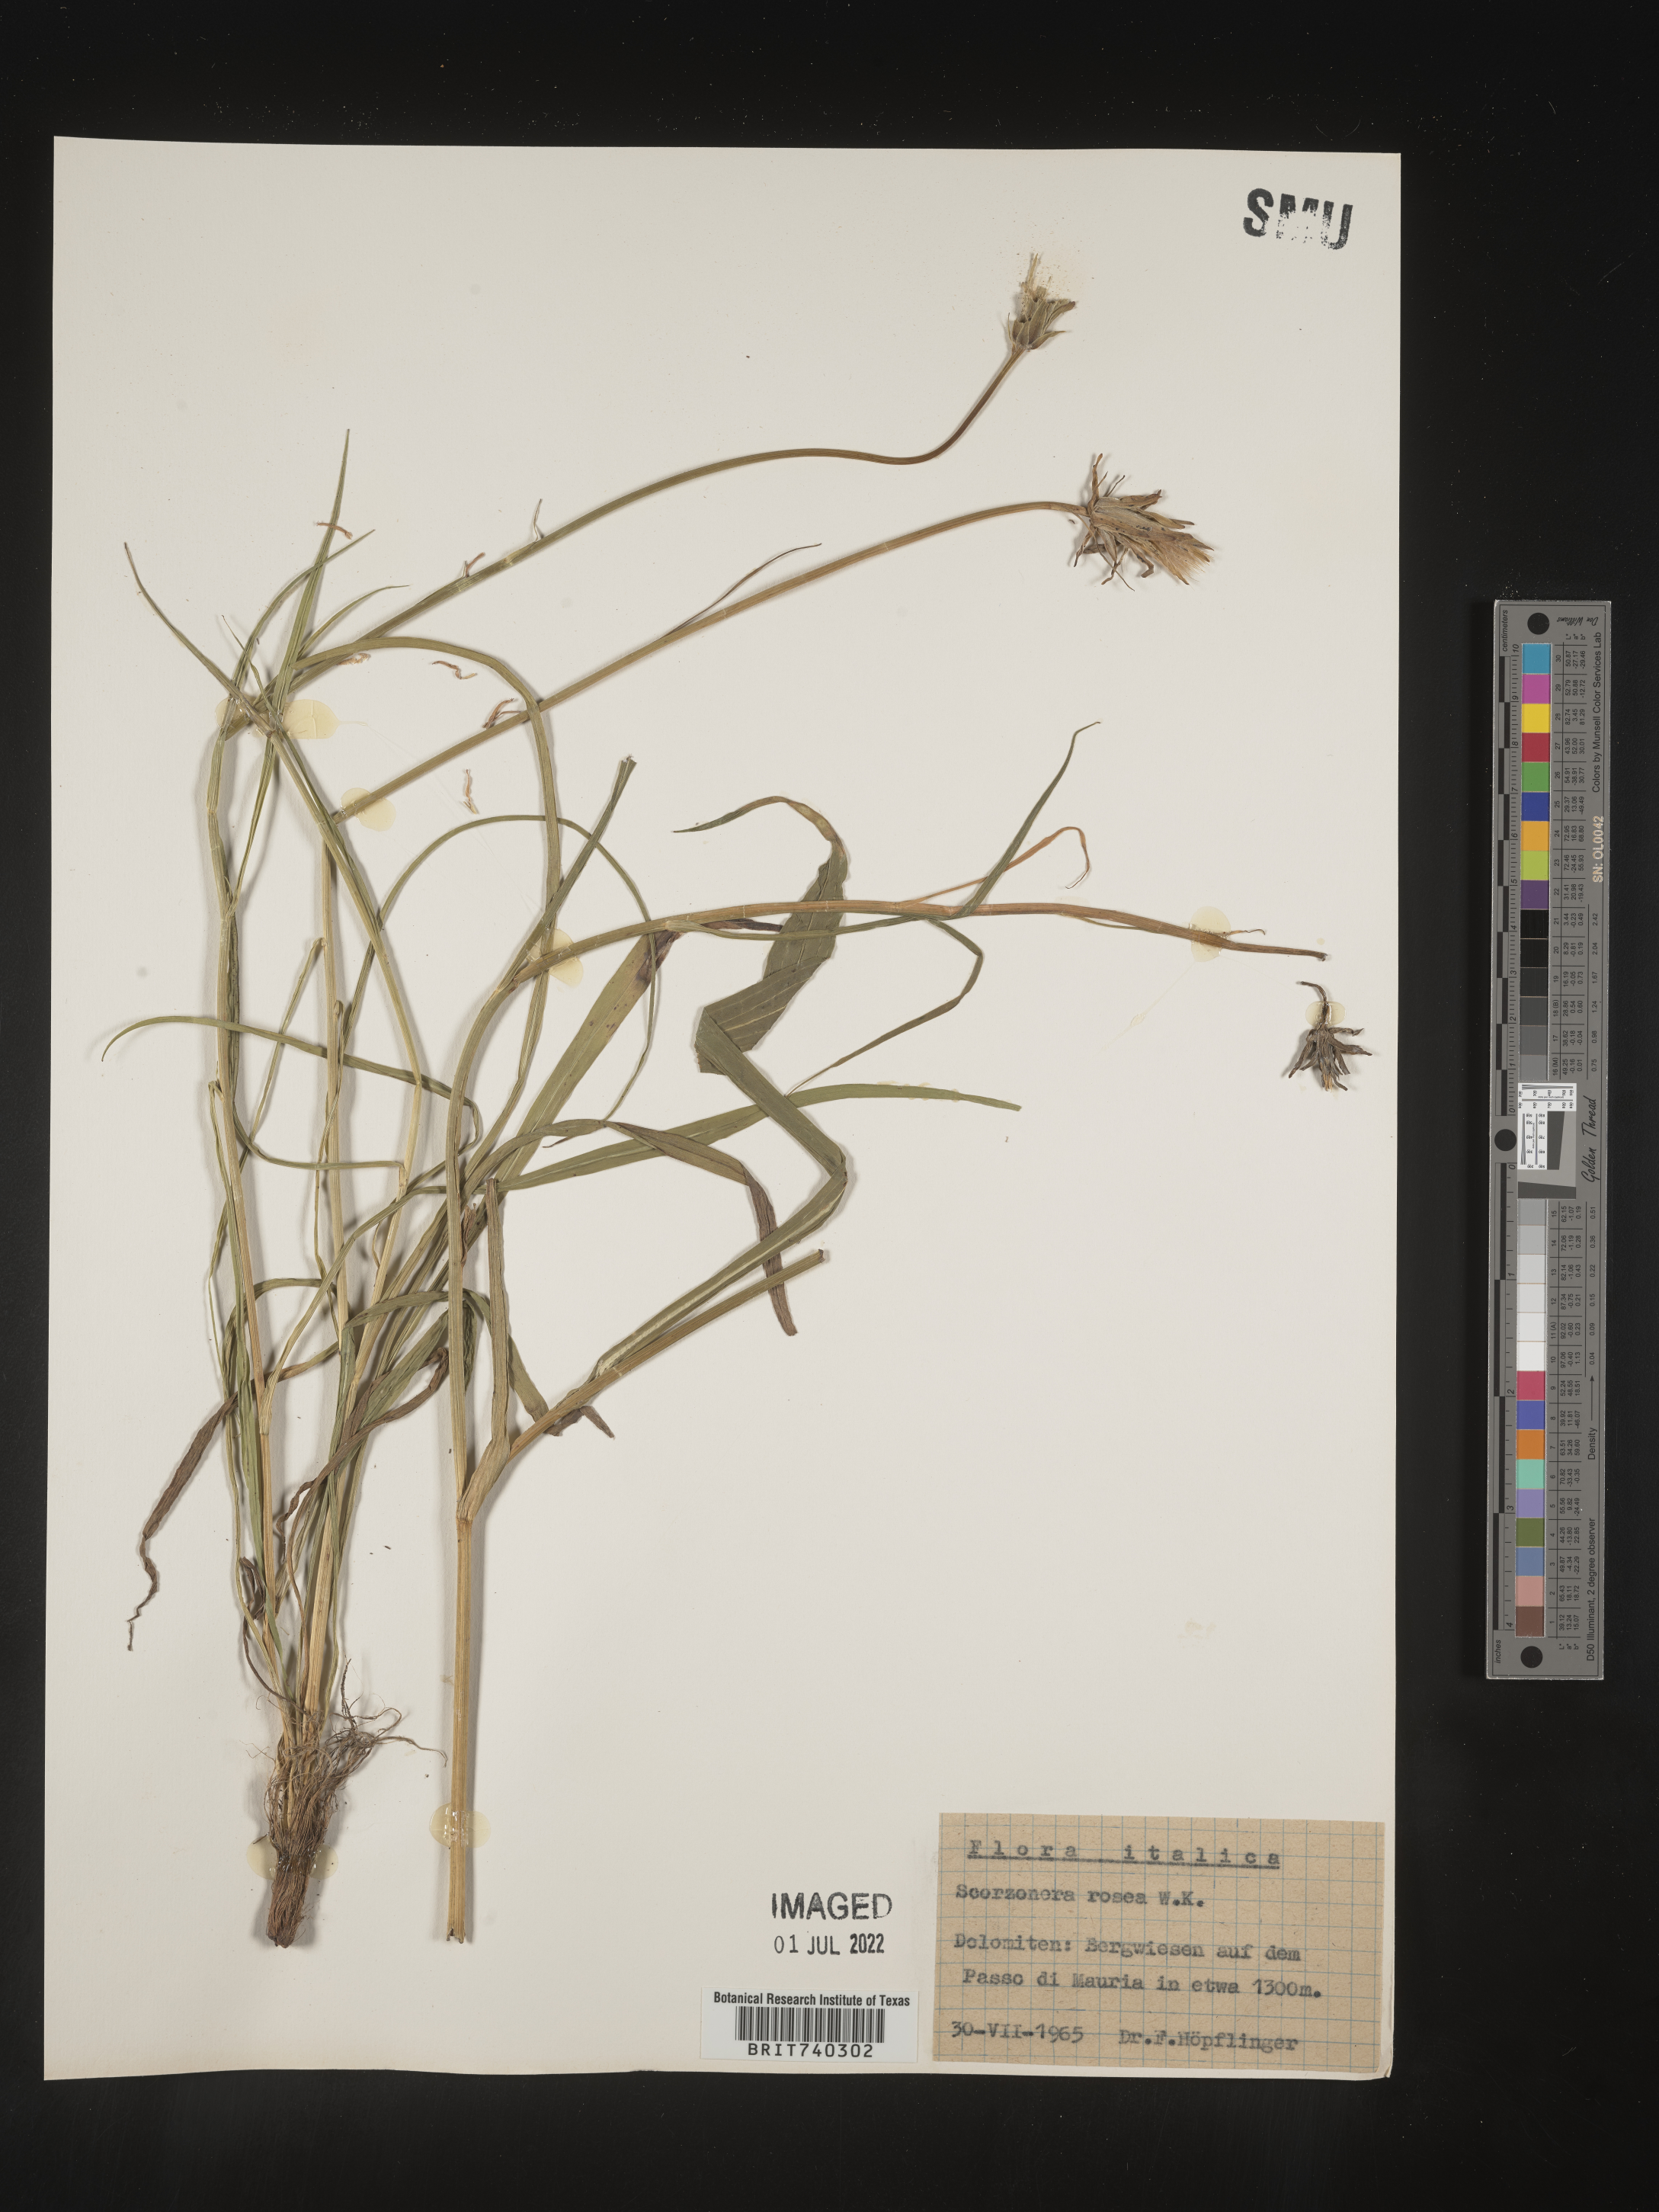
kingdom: Plantae
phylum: Tracheophyta
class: Magnoliopsida
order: Asterales
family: Asteraceae
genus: Scorzonera
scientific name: Scorzonera
